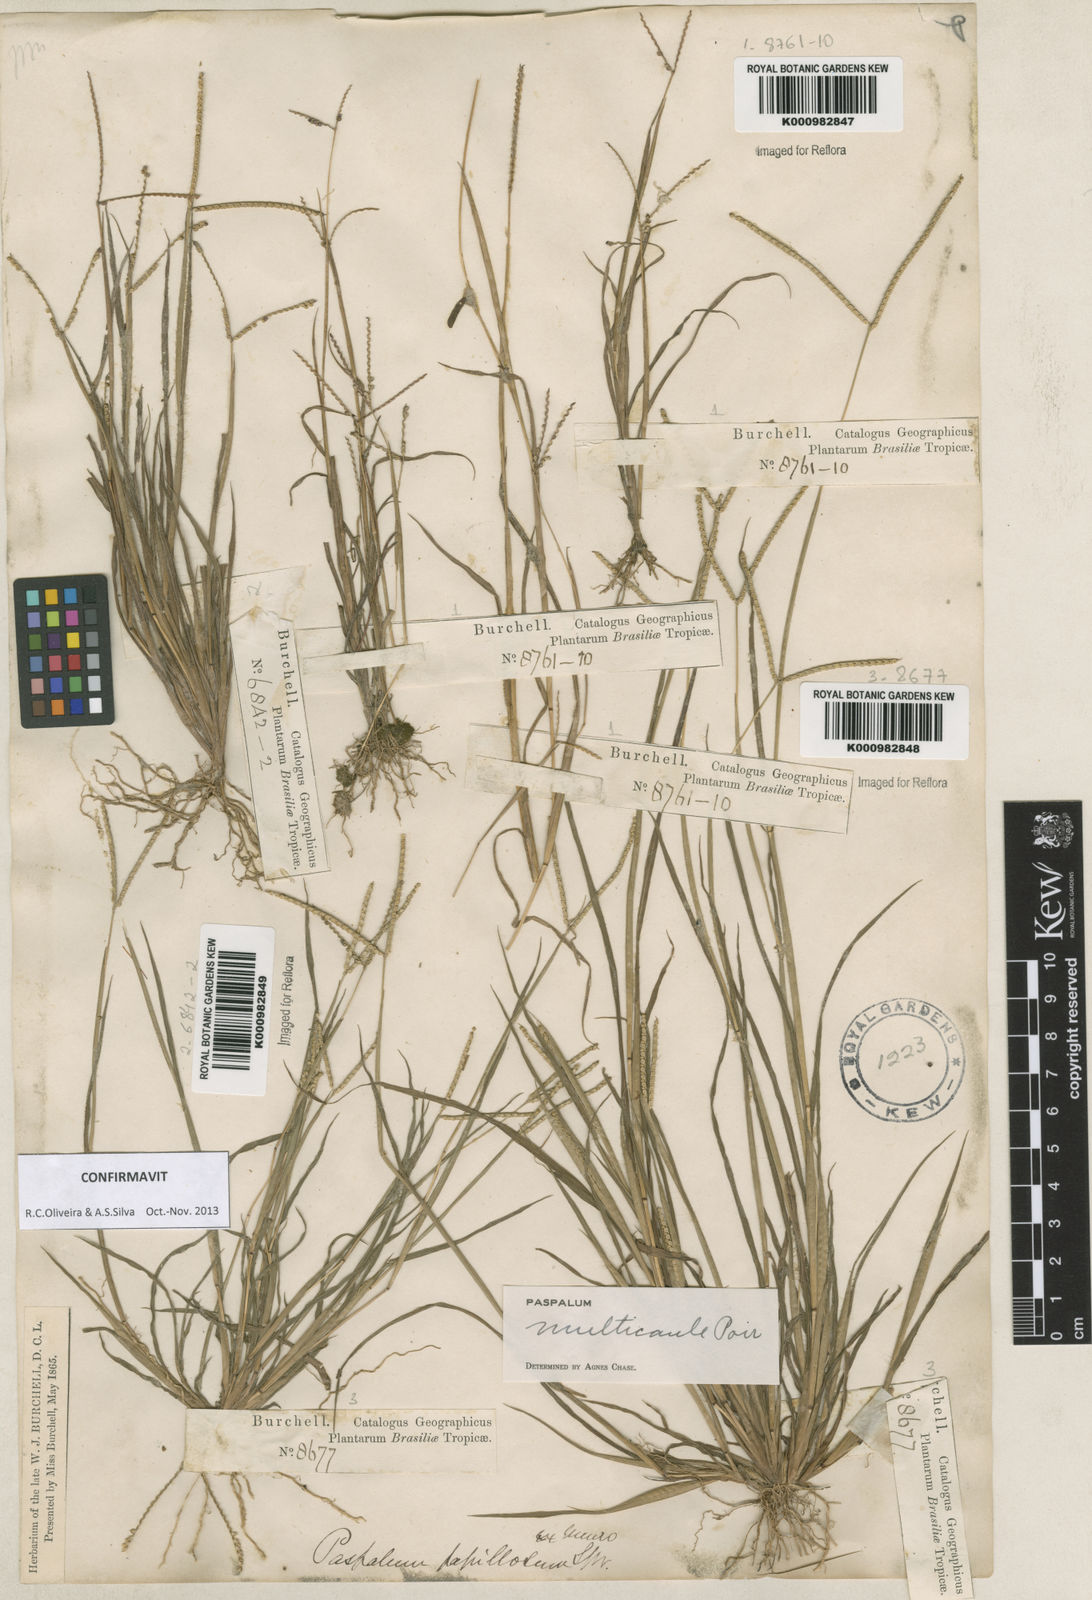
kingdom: Plantae
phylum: Tracheophyta
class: Liliopsida
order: Poales
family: Poaceae
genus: Paspalum
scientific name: Paspalum multicaule
